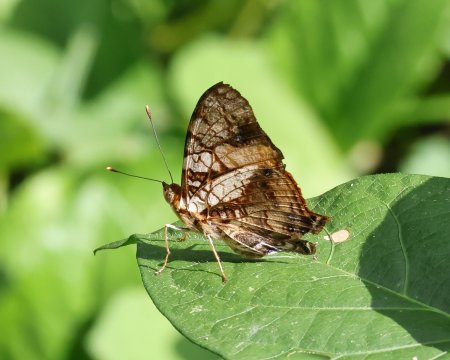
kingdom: Animalia
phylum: Arthropoda
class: Insecta
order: Lepidoptera
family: Nymphalidae
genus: Hypanartia
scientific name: Hypanartia lethe
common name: Orange Mapwing
